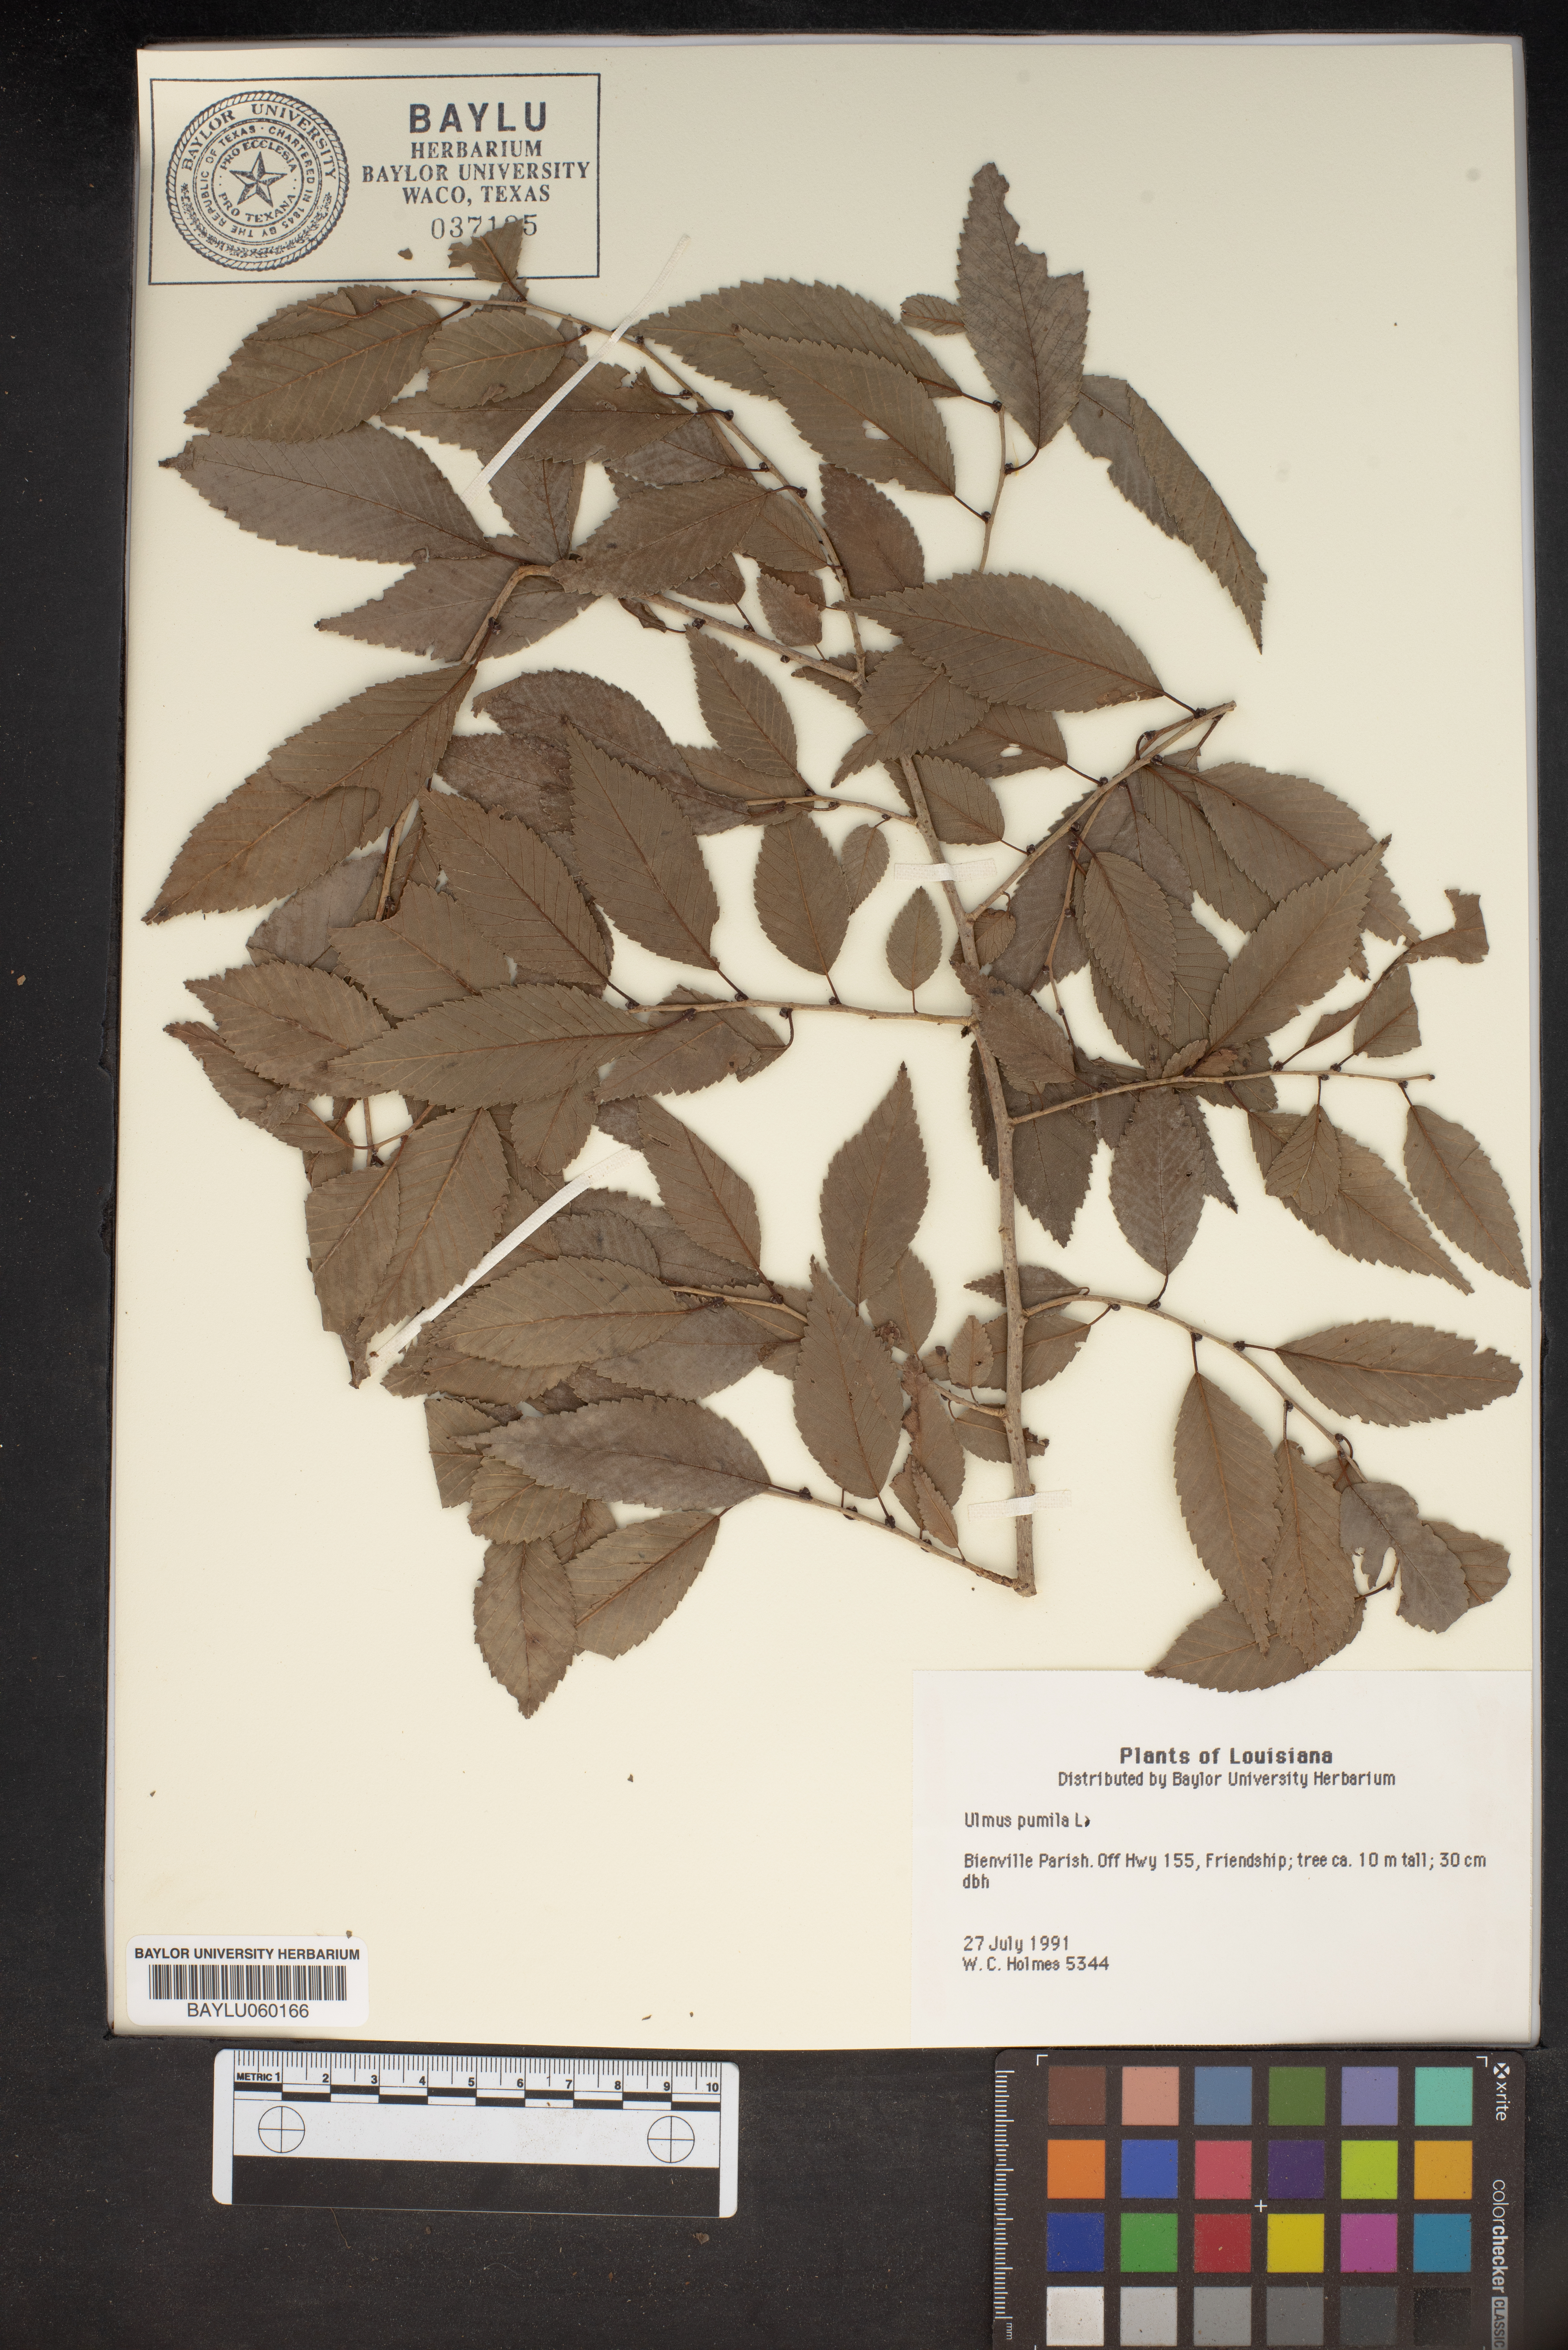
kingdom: Plantae
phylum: Tracheophyta
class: Magnoliopsida
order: Rosales
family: Ulmaceae
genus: Ulmus
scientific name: Ulmus pumila
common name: Siberian elm
